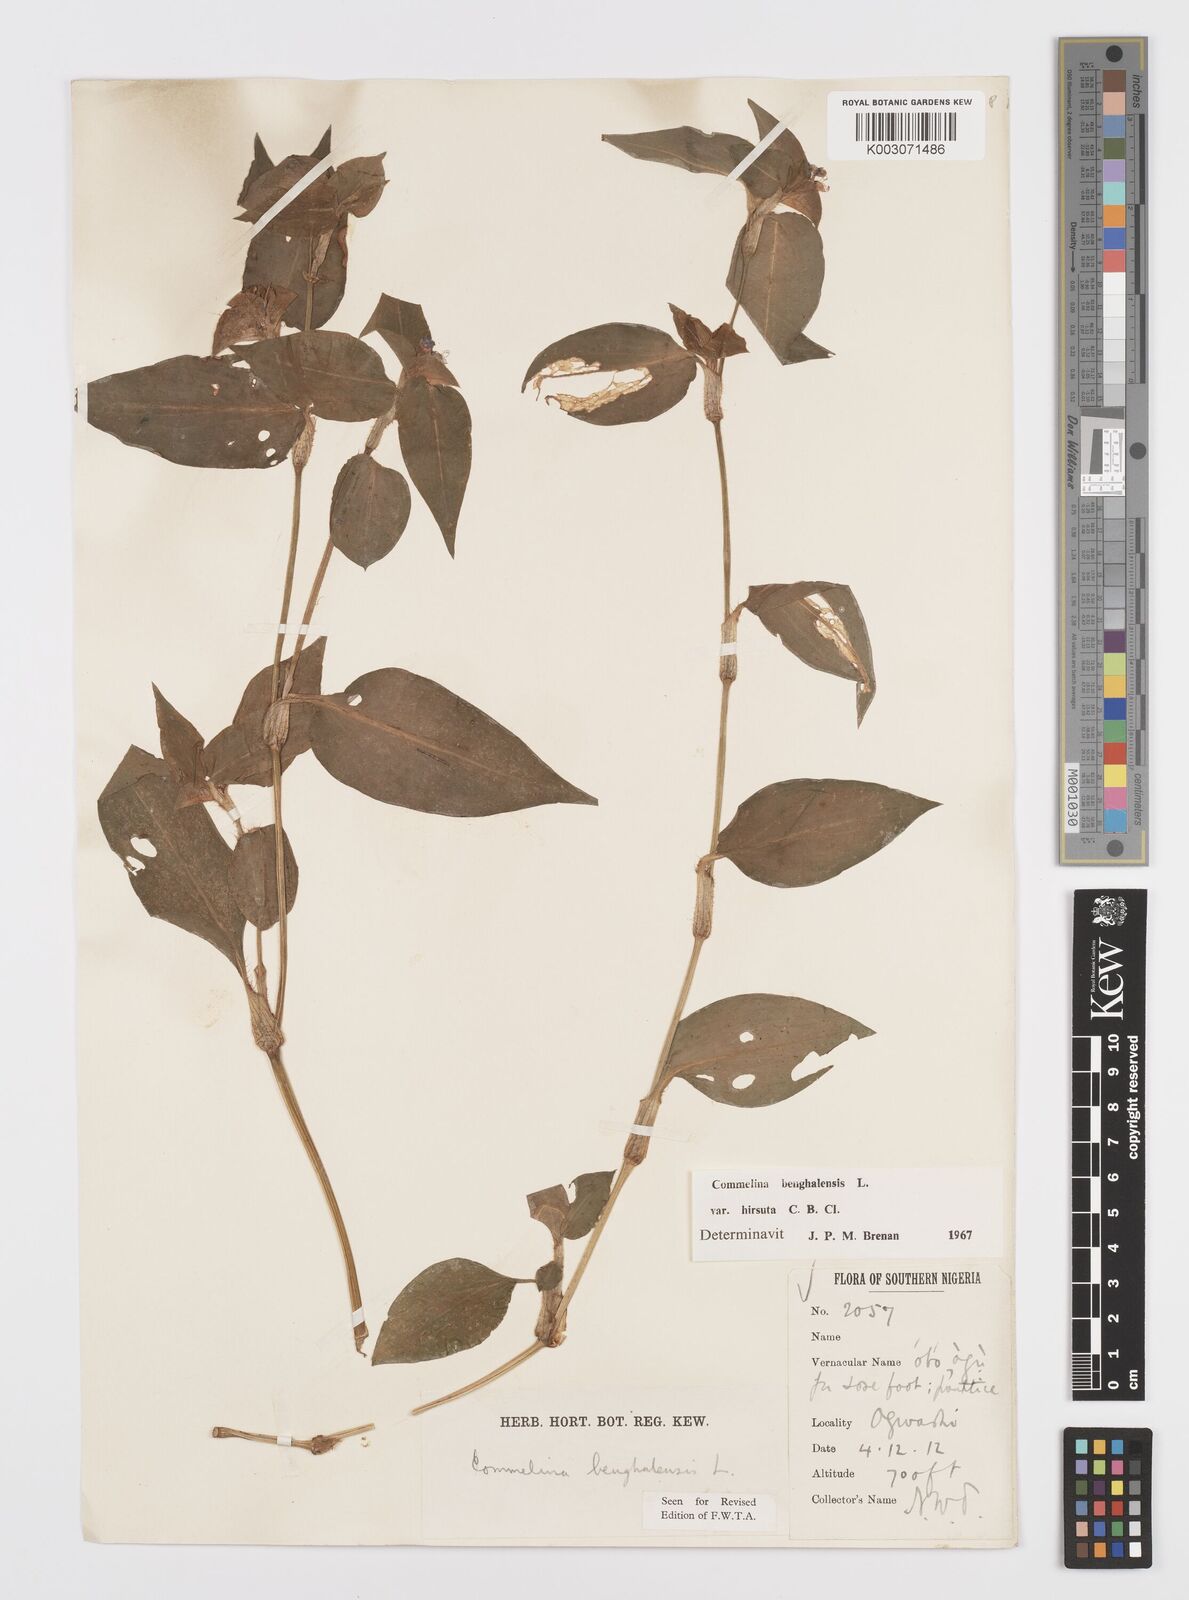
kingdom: Plantae
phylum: Tracheophyta
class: Liliopsida
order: Commelinales
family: Commelinaceae
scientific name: Commelinaceae
